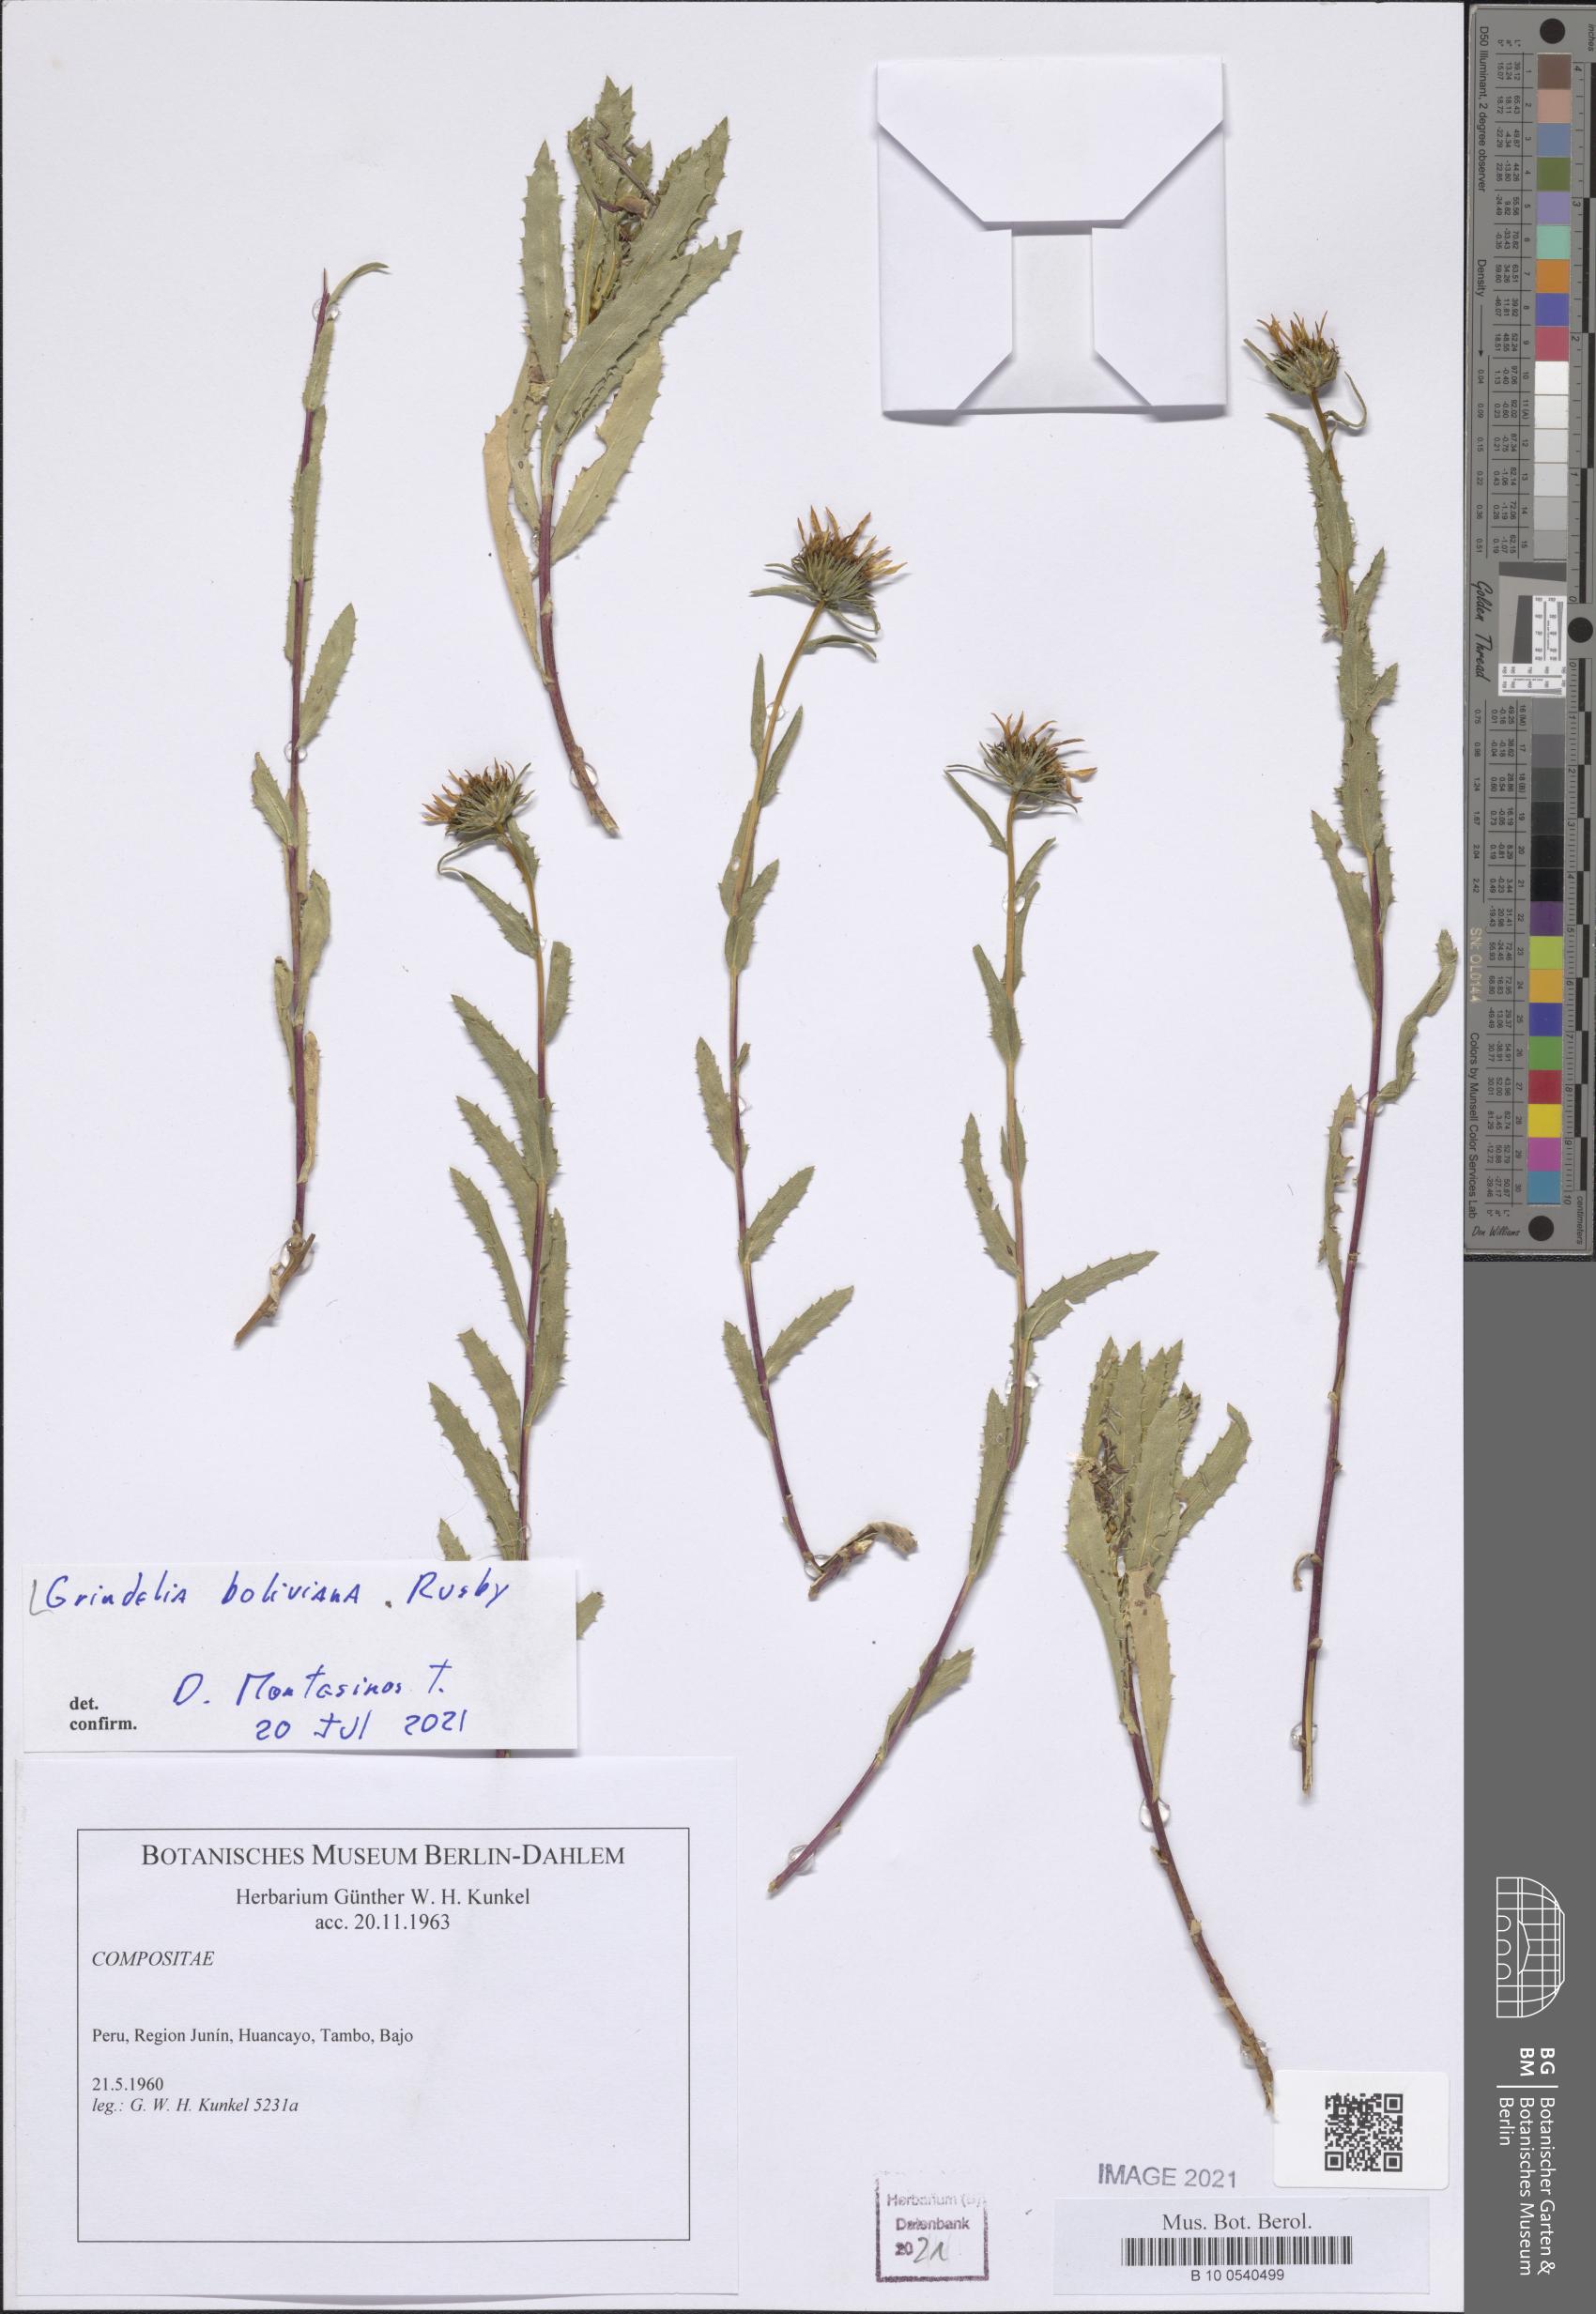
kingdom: Plantae
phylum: Tracheophyta
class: Magnoliopsida
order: Asterales
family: Asteraceae
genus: Grindelia
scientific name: Grindelia boliviana
